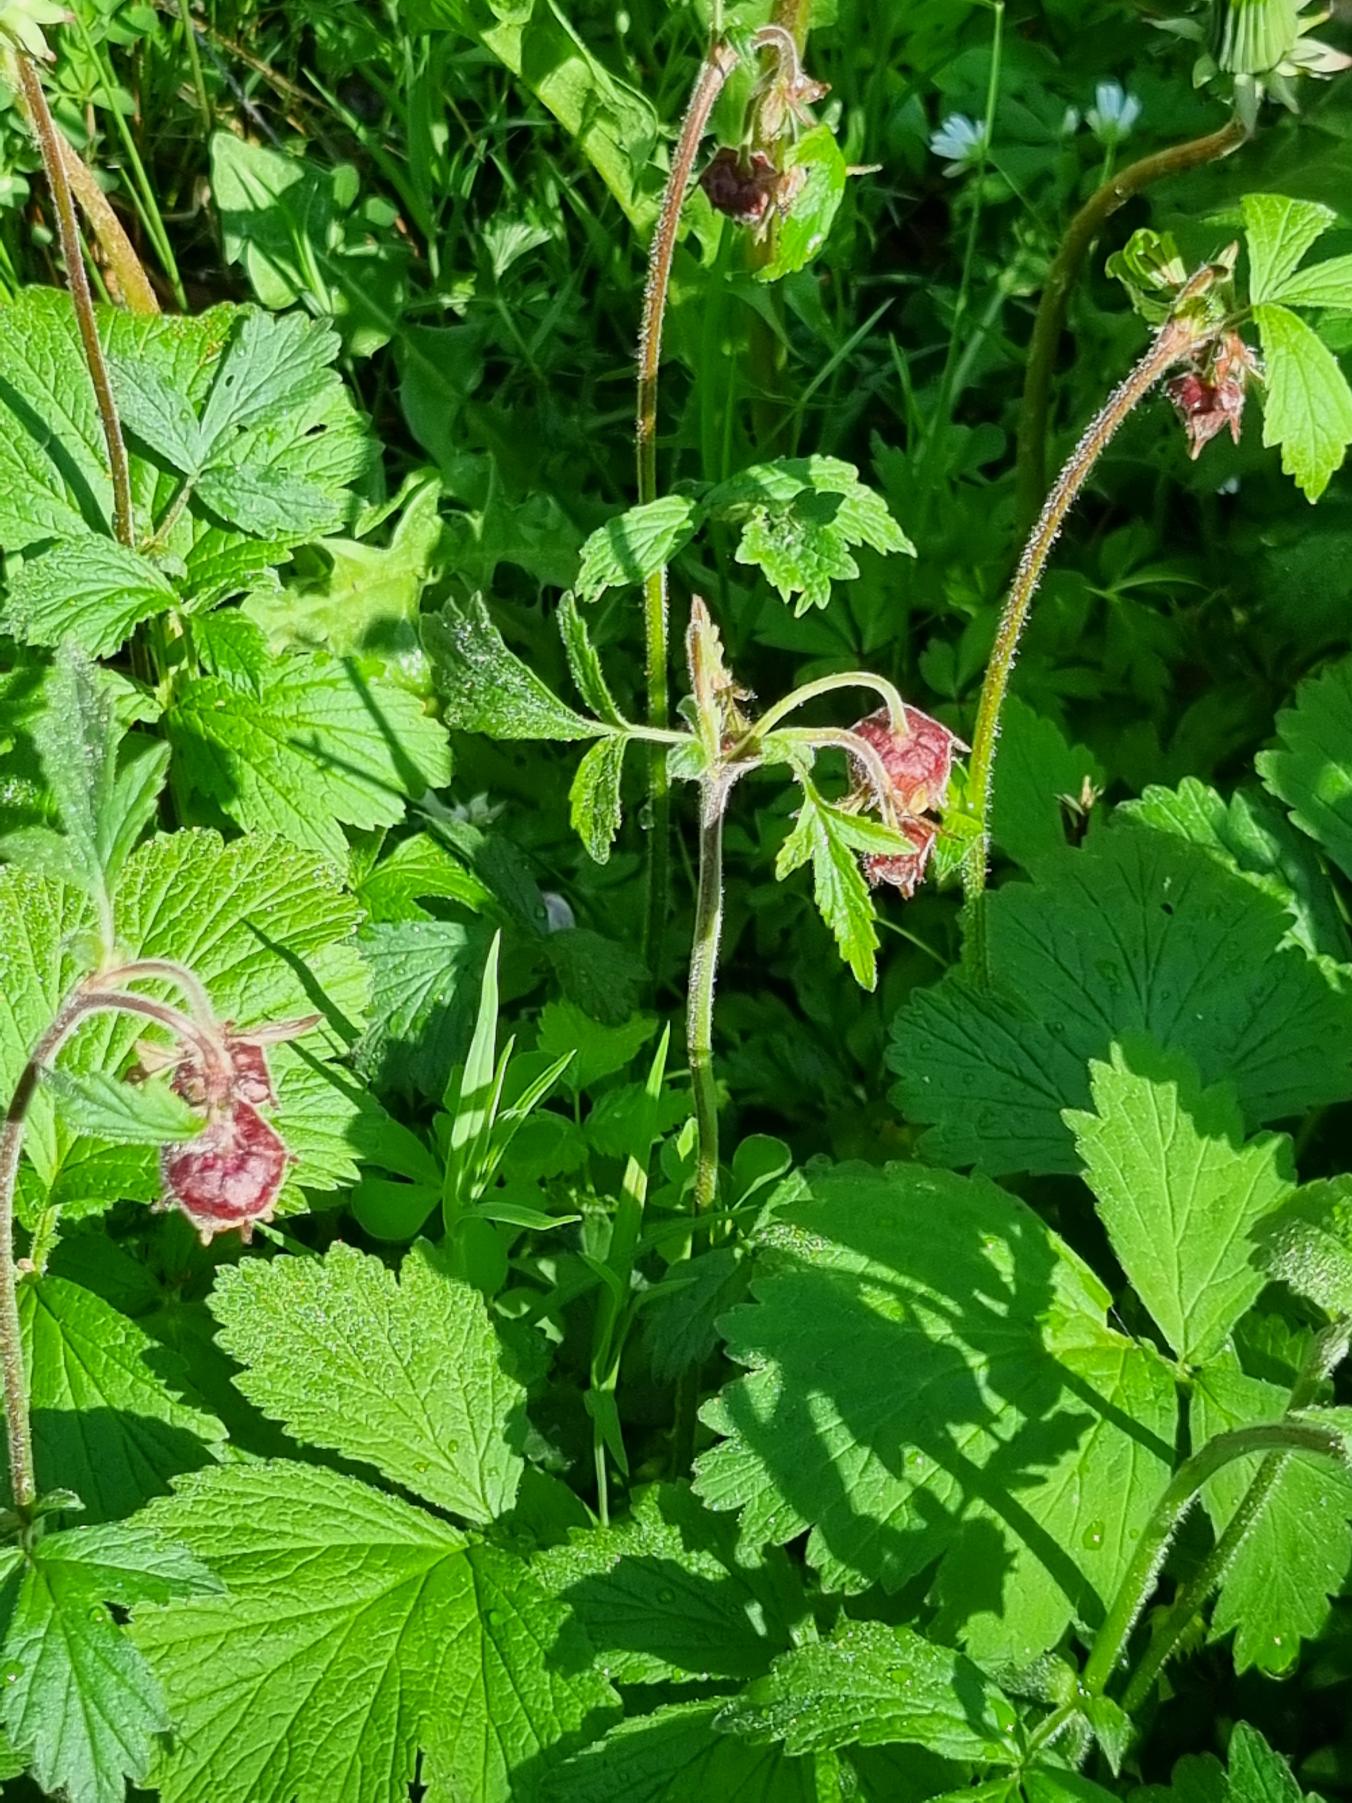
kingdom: Plantae
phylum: Tracheophyta
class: Magnoliopsida
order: Rosales
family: Rosaceae
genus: Geum
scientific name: Geum rivale
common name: Eng-nellikerod
